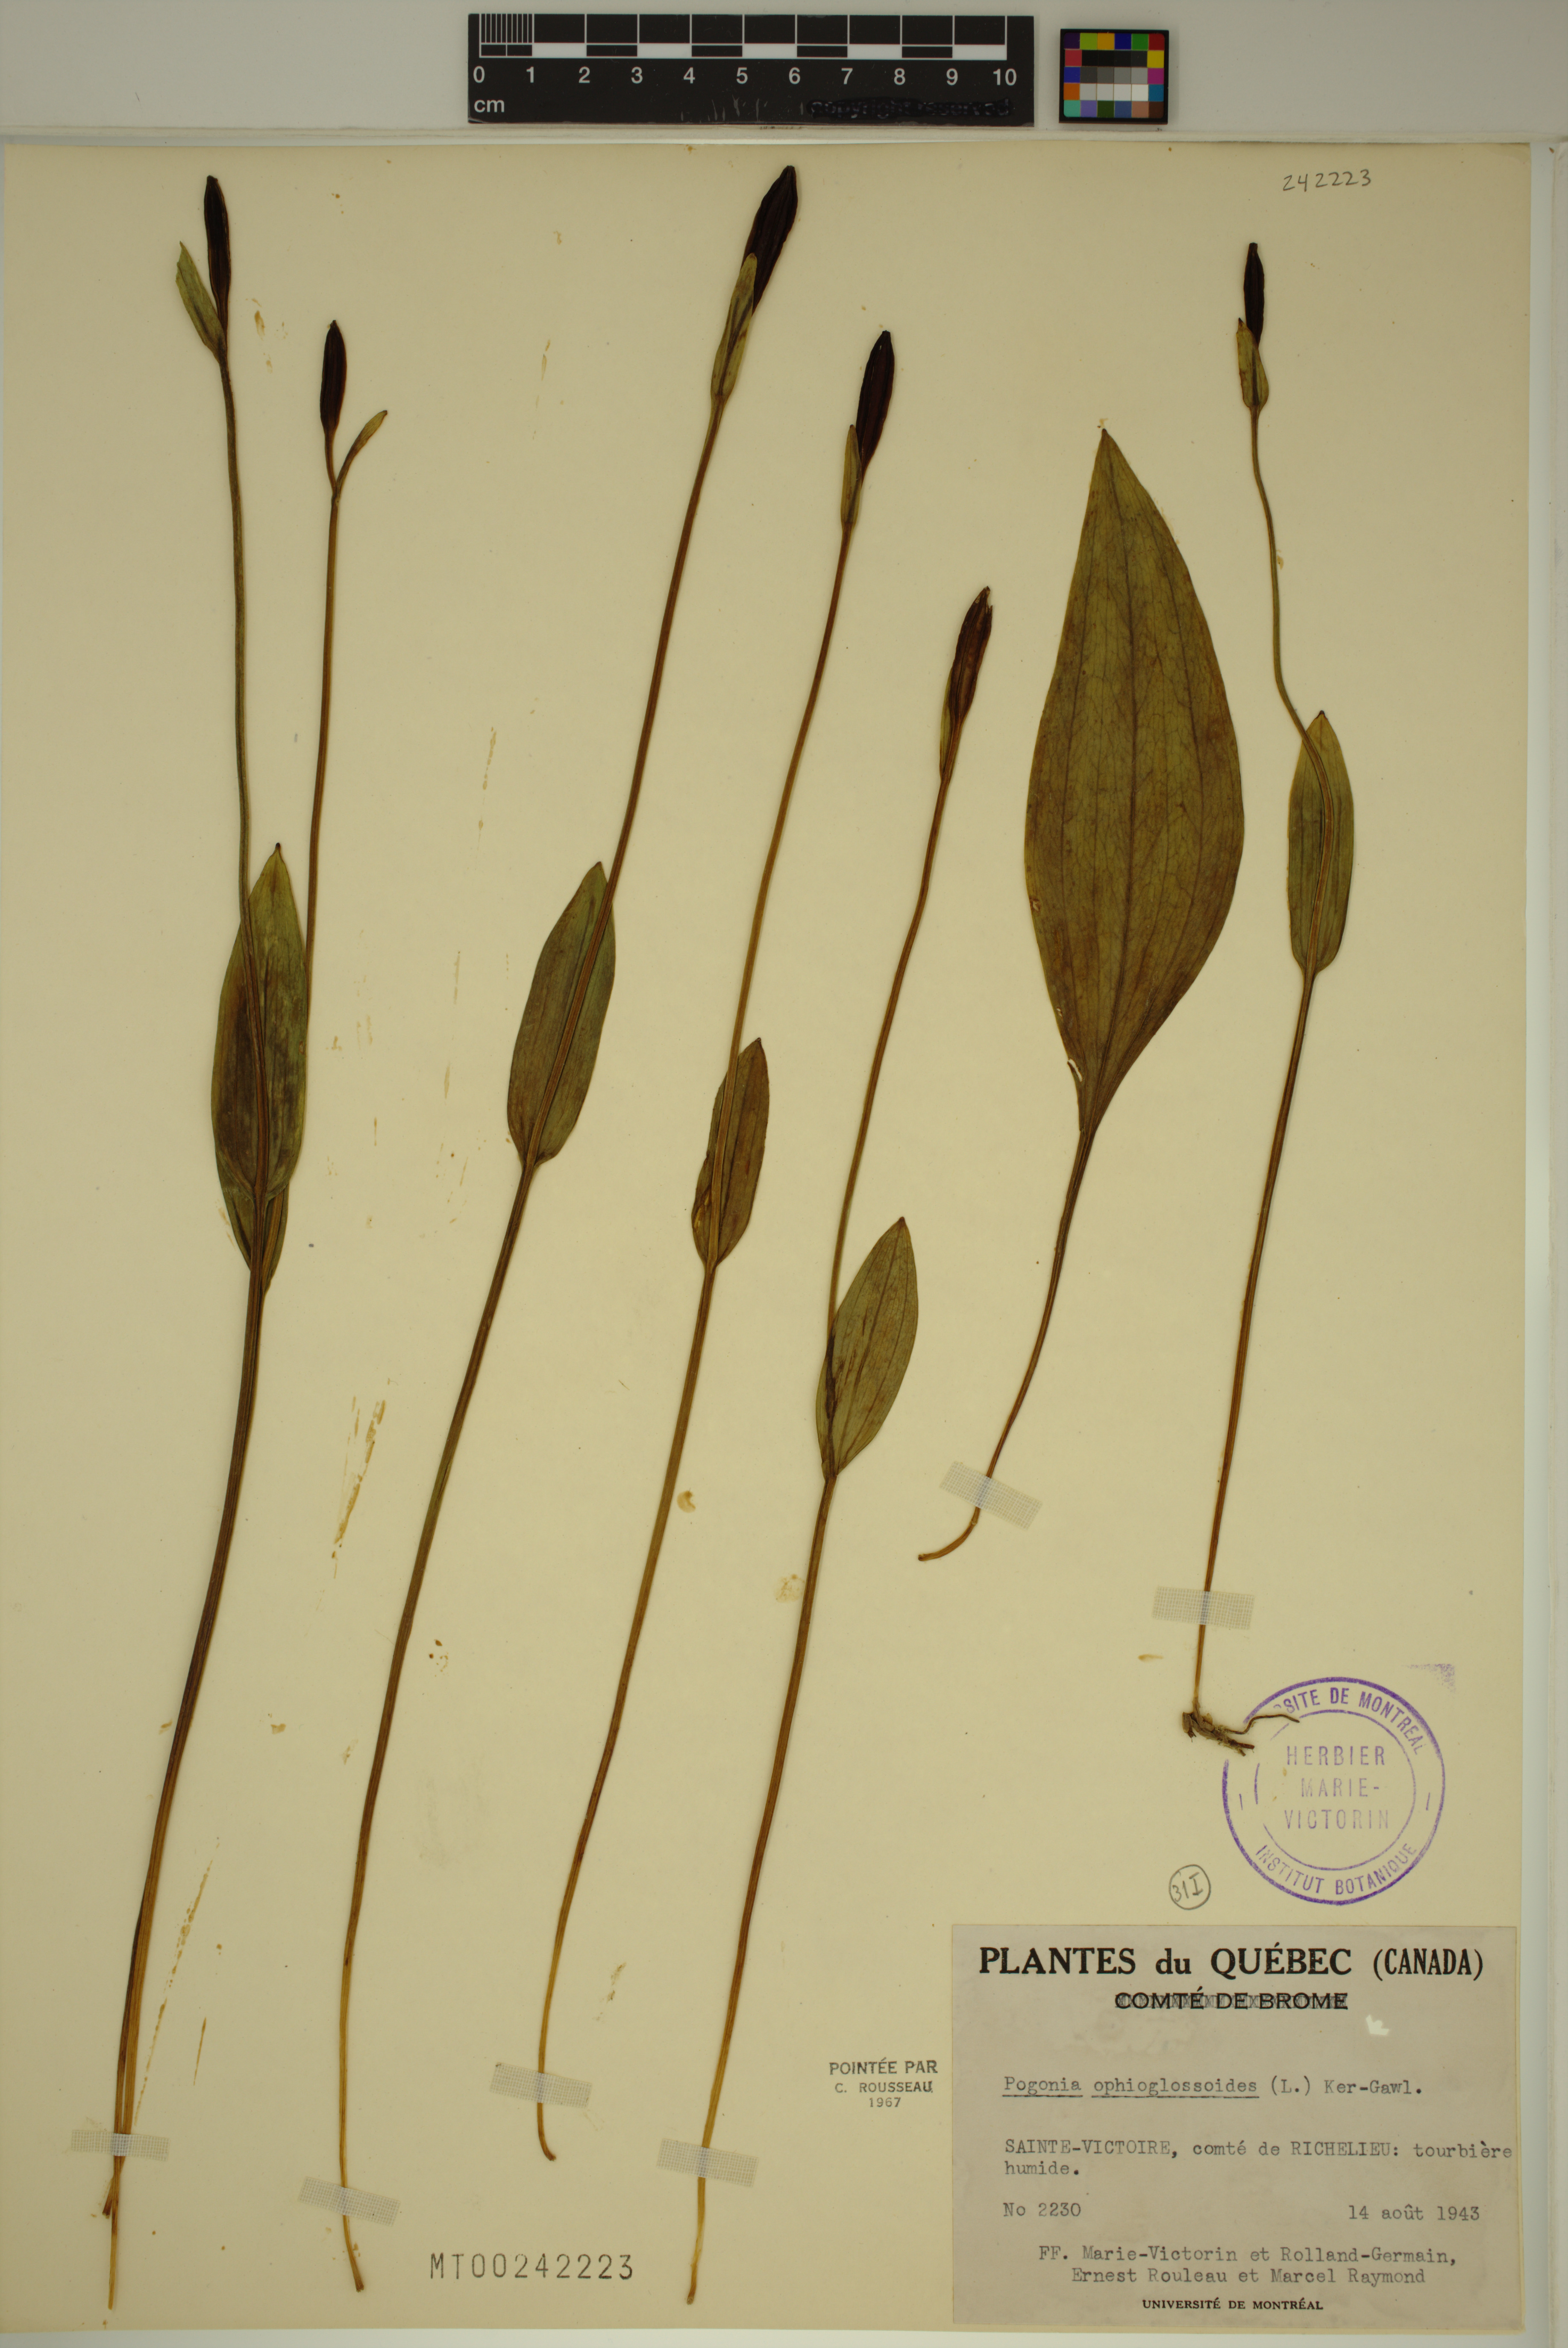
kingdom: Plantae
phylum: Tracheophyta
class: Liliopsida
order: Asparagales
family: Orchidaceae
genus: Pogonia
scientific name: Pogonia ophioglossoides
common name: Rose pogonia
